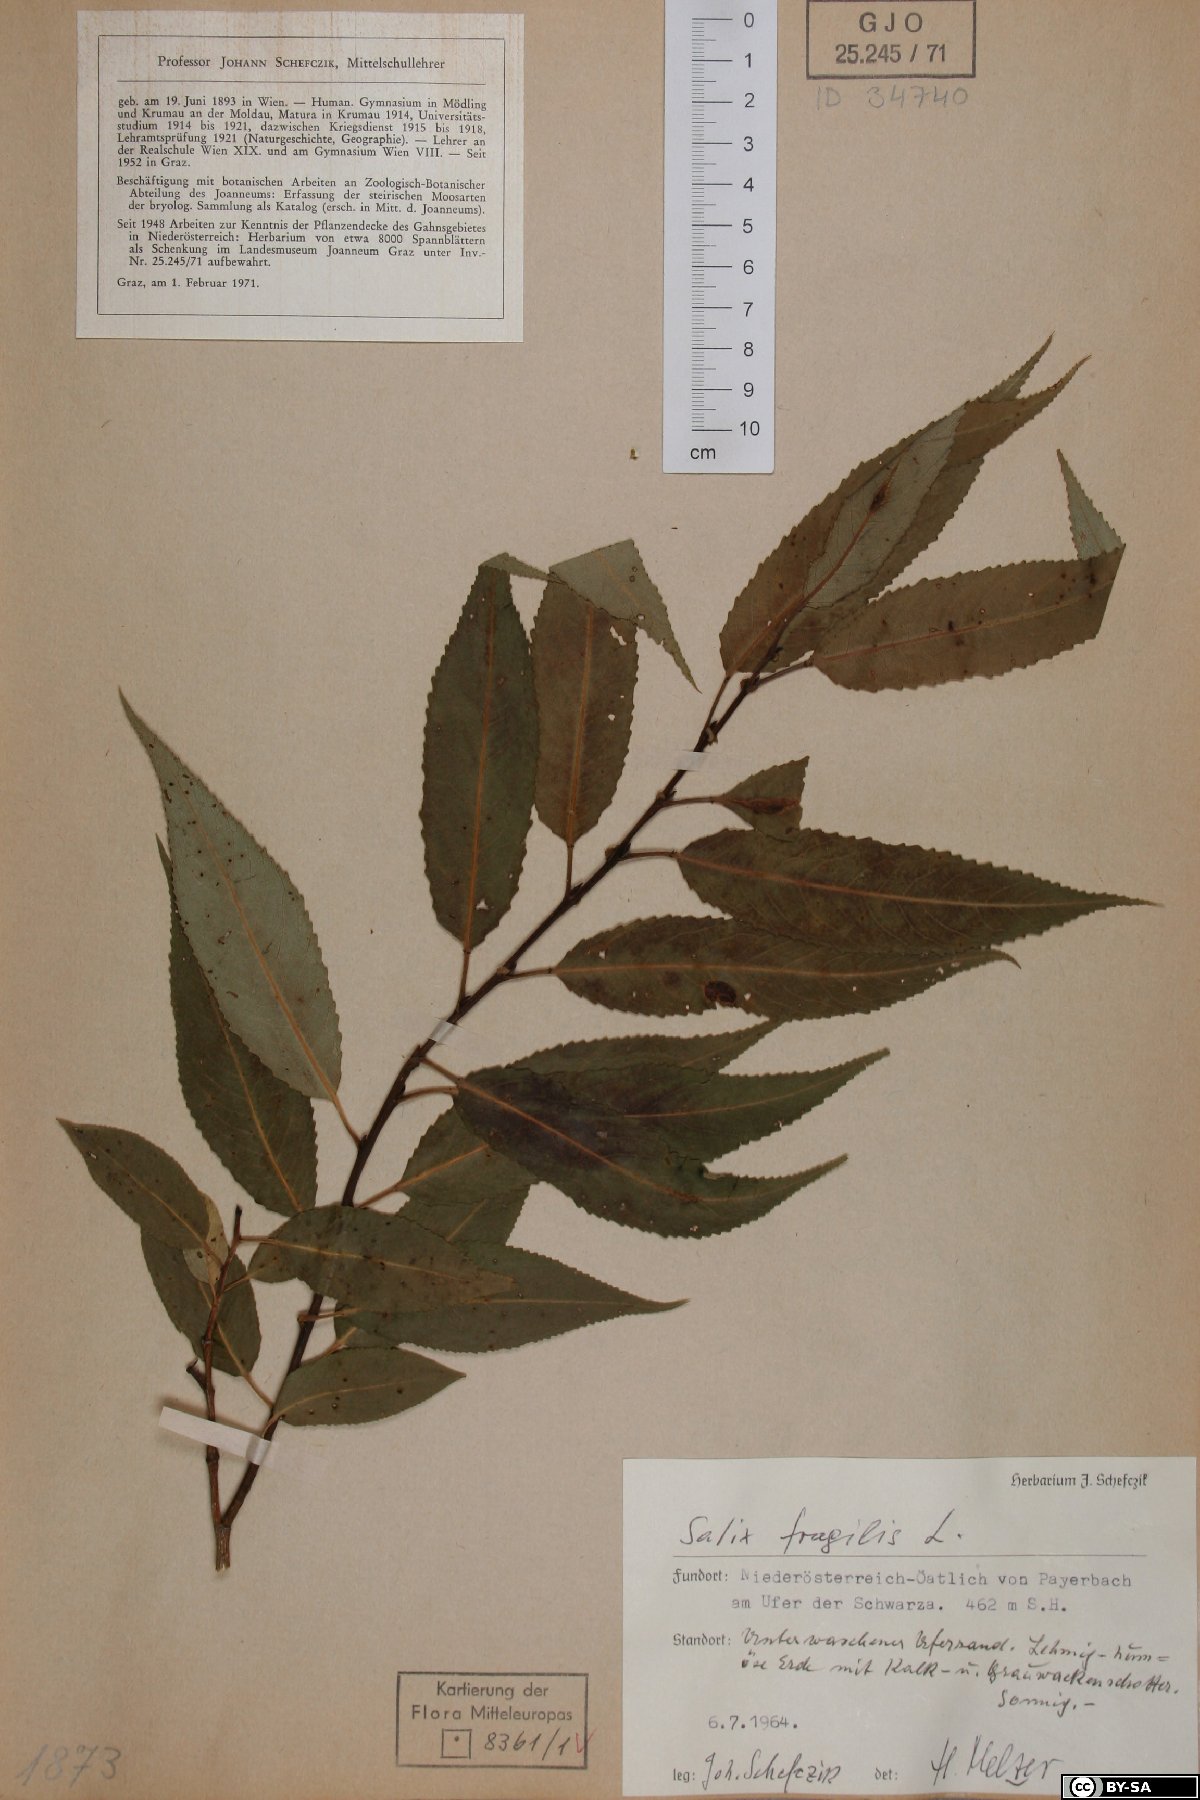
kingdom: Plantae
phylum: Tracheophyta
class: Magnoliopsida
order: Malpighiales
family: Salicaceae
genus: Salix
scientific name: Salix fragilis
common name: Crack willow
